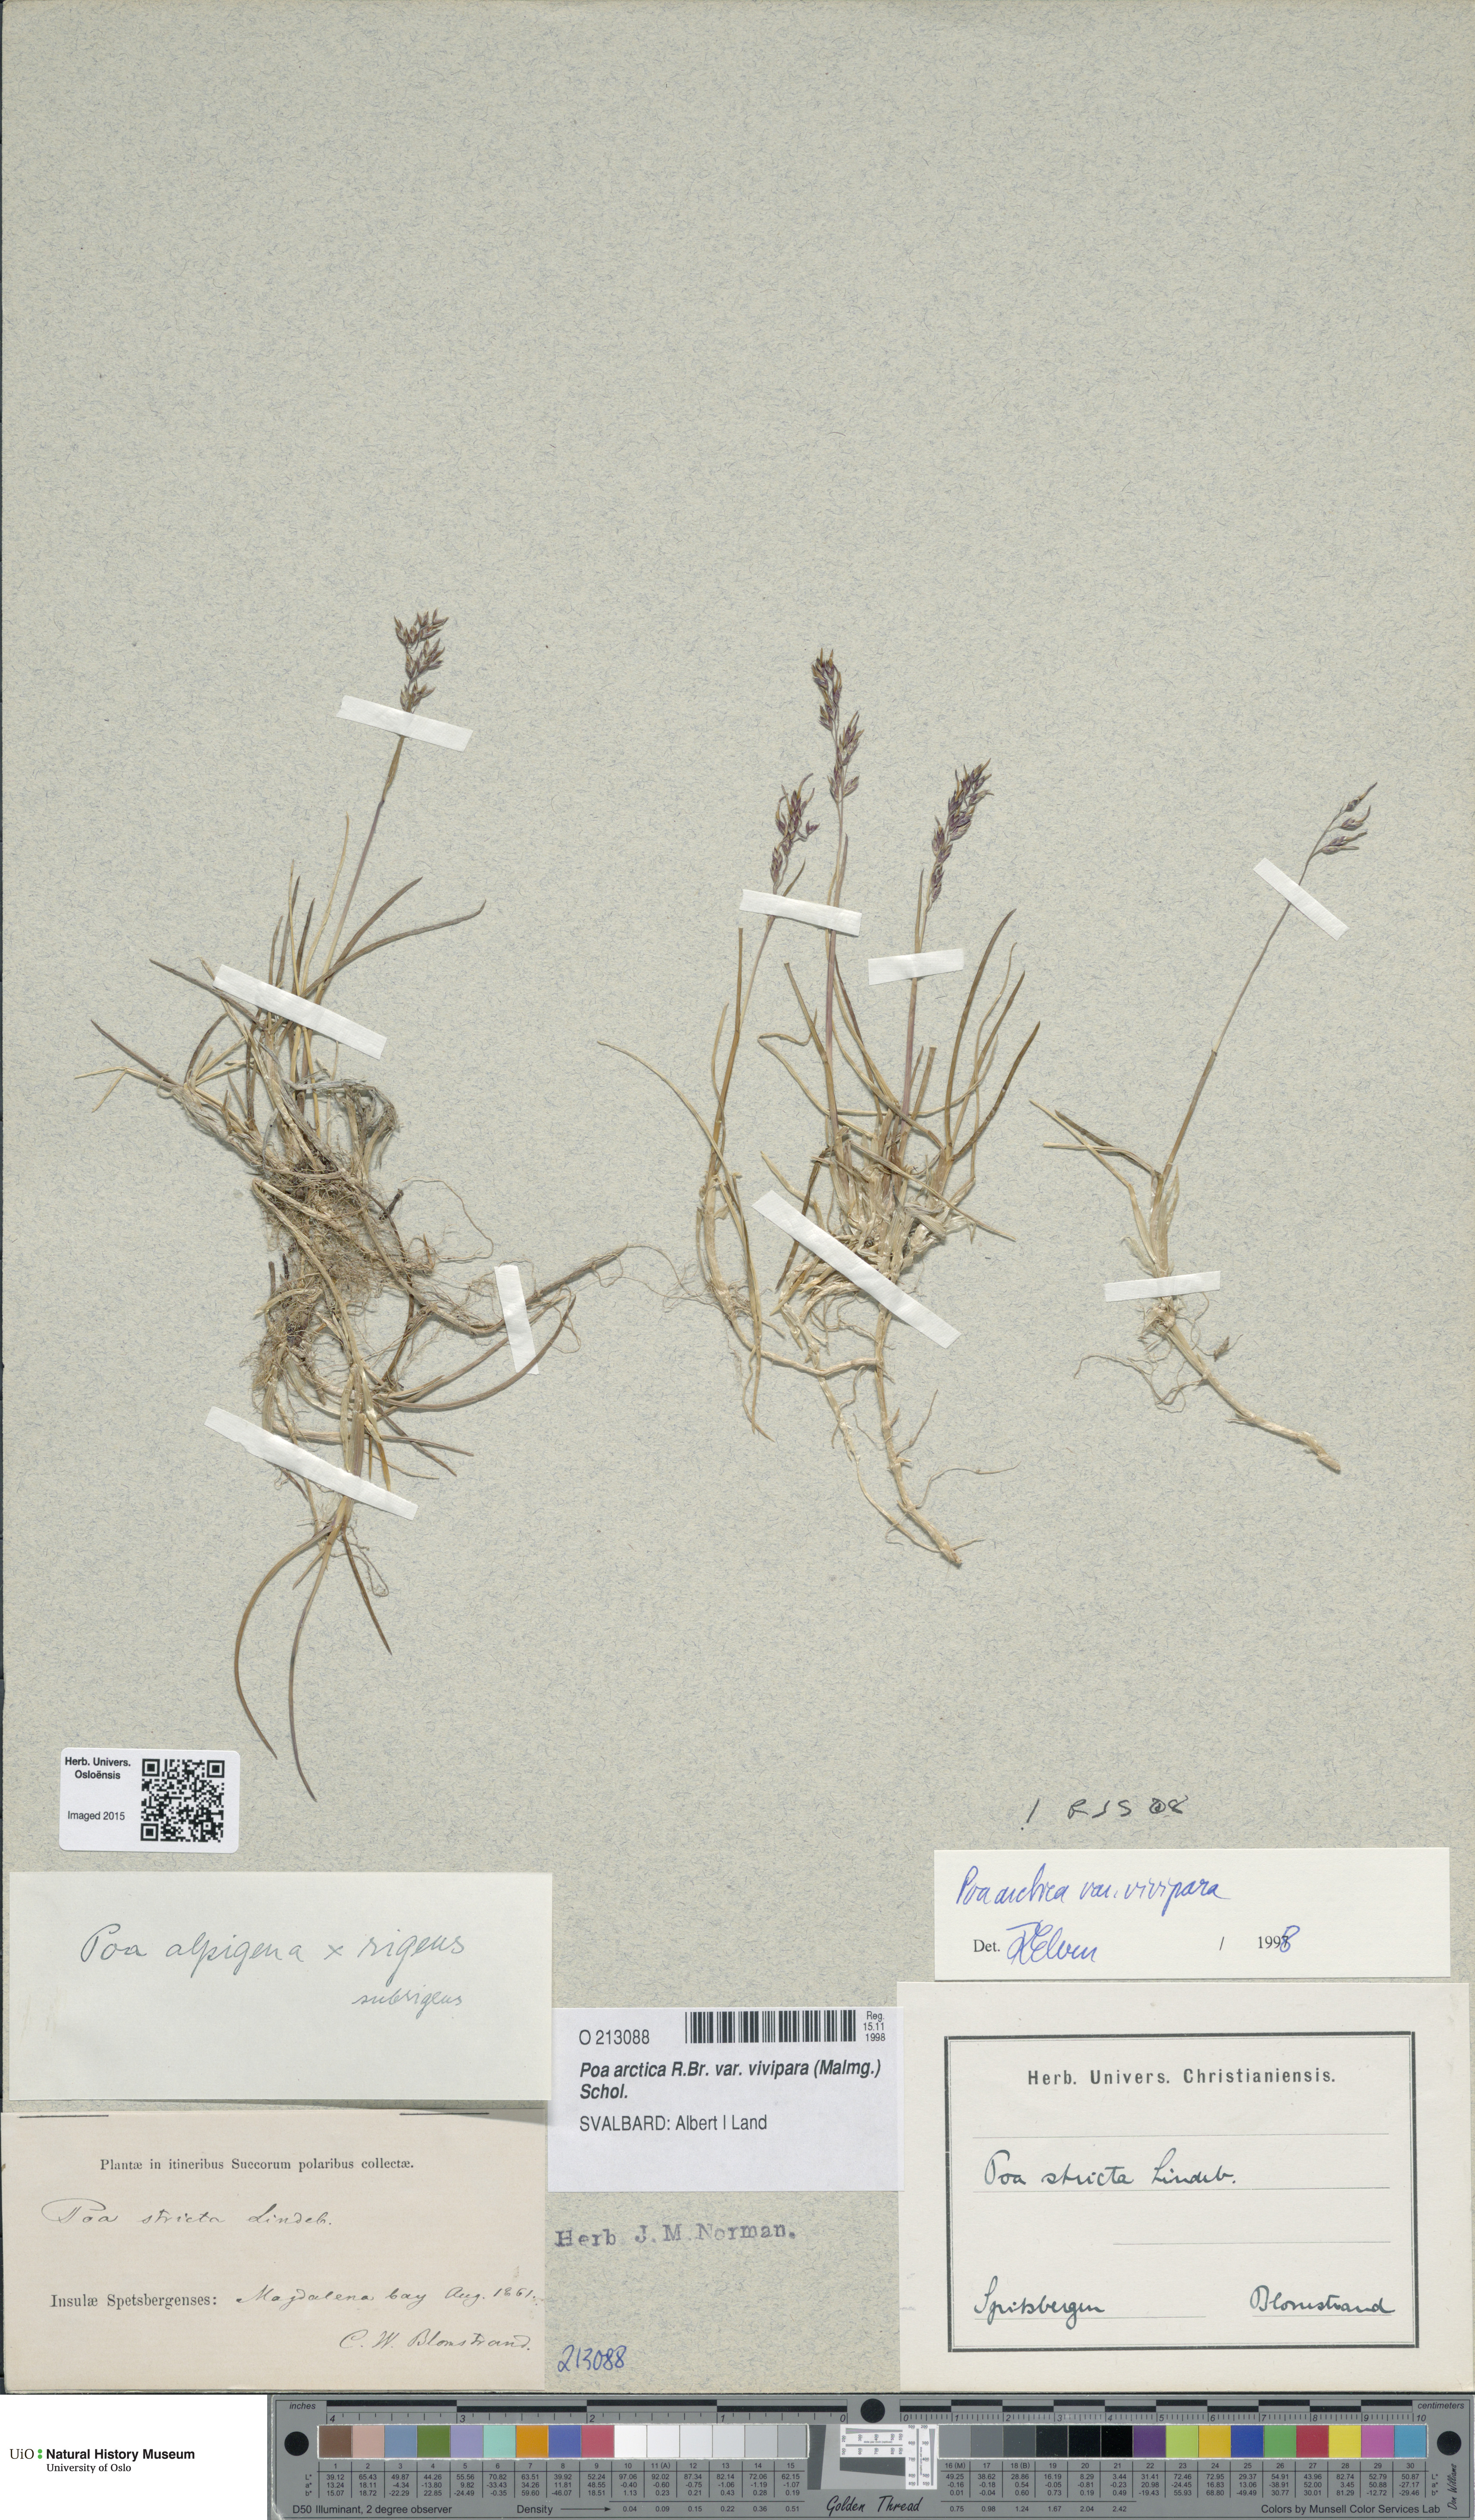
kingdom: Plantae
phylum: Tracheophyta
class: Liliopsida
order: Poales
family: Poaceae
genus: Poa
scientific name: Poa arctica
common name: Arctic bluegrass
